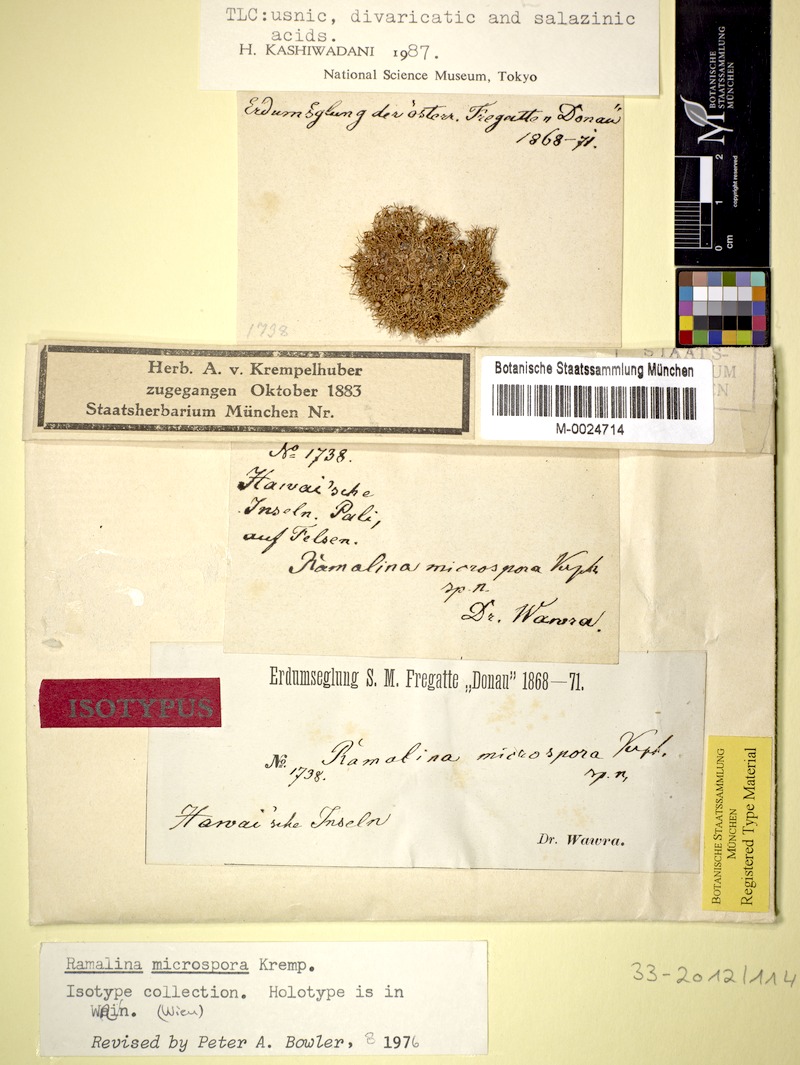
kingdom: Fungi
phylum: Ascomycota
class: Lecanoromycetes
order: Lecanorales
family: Ramalinaceae
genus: Ramalina
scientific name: Ramalina microspora
